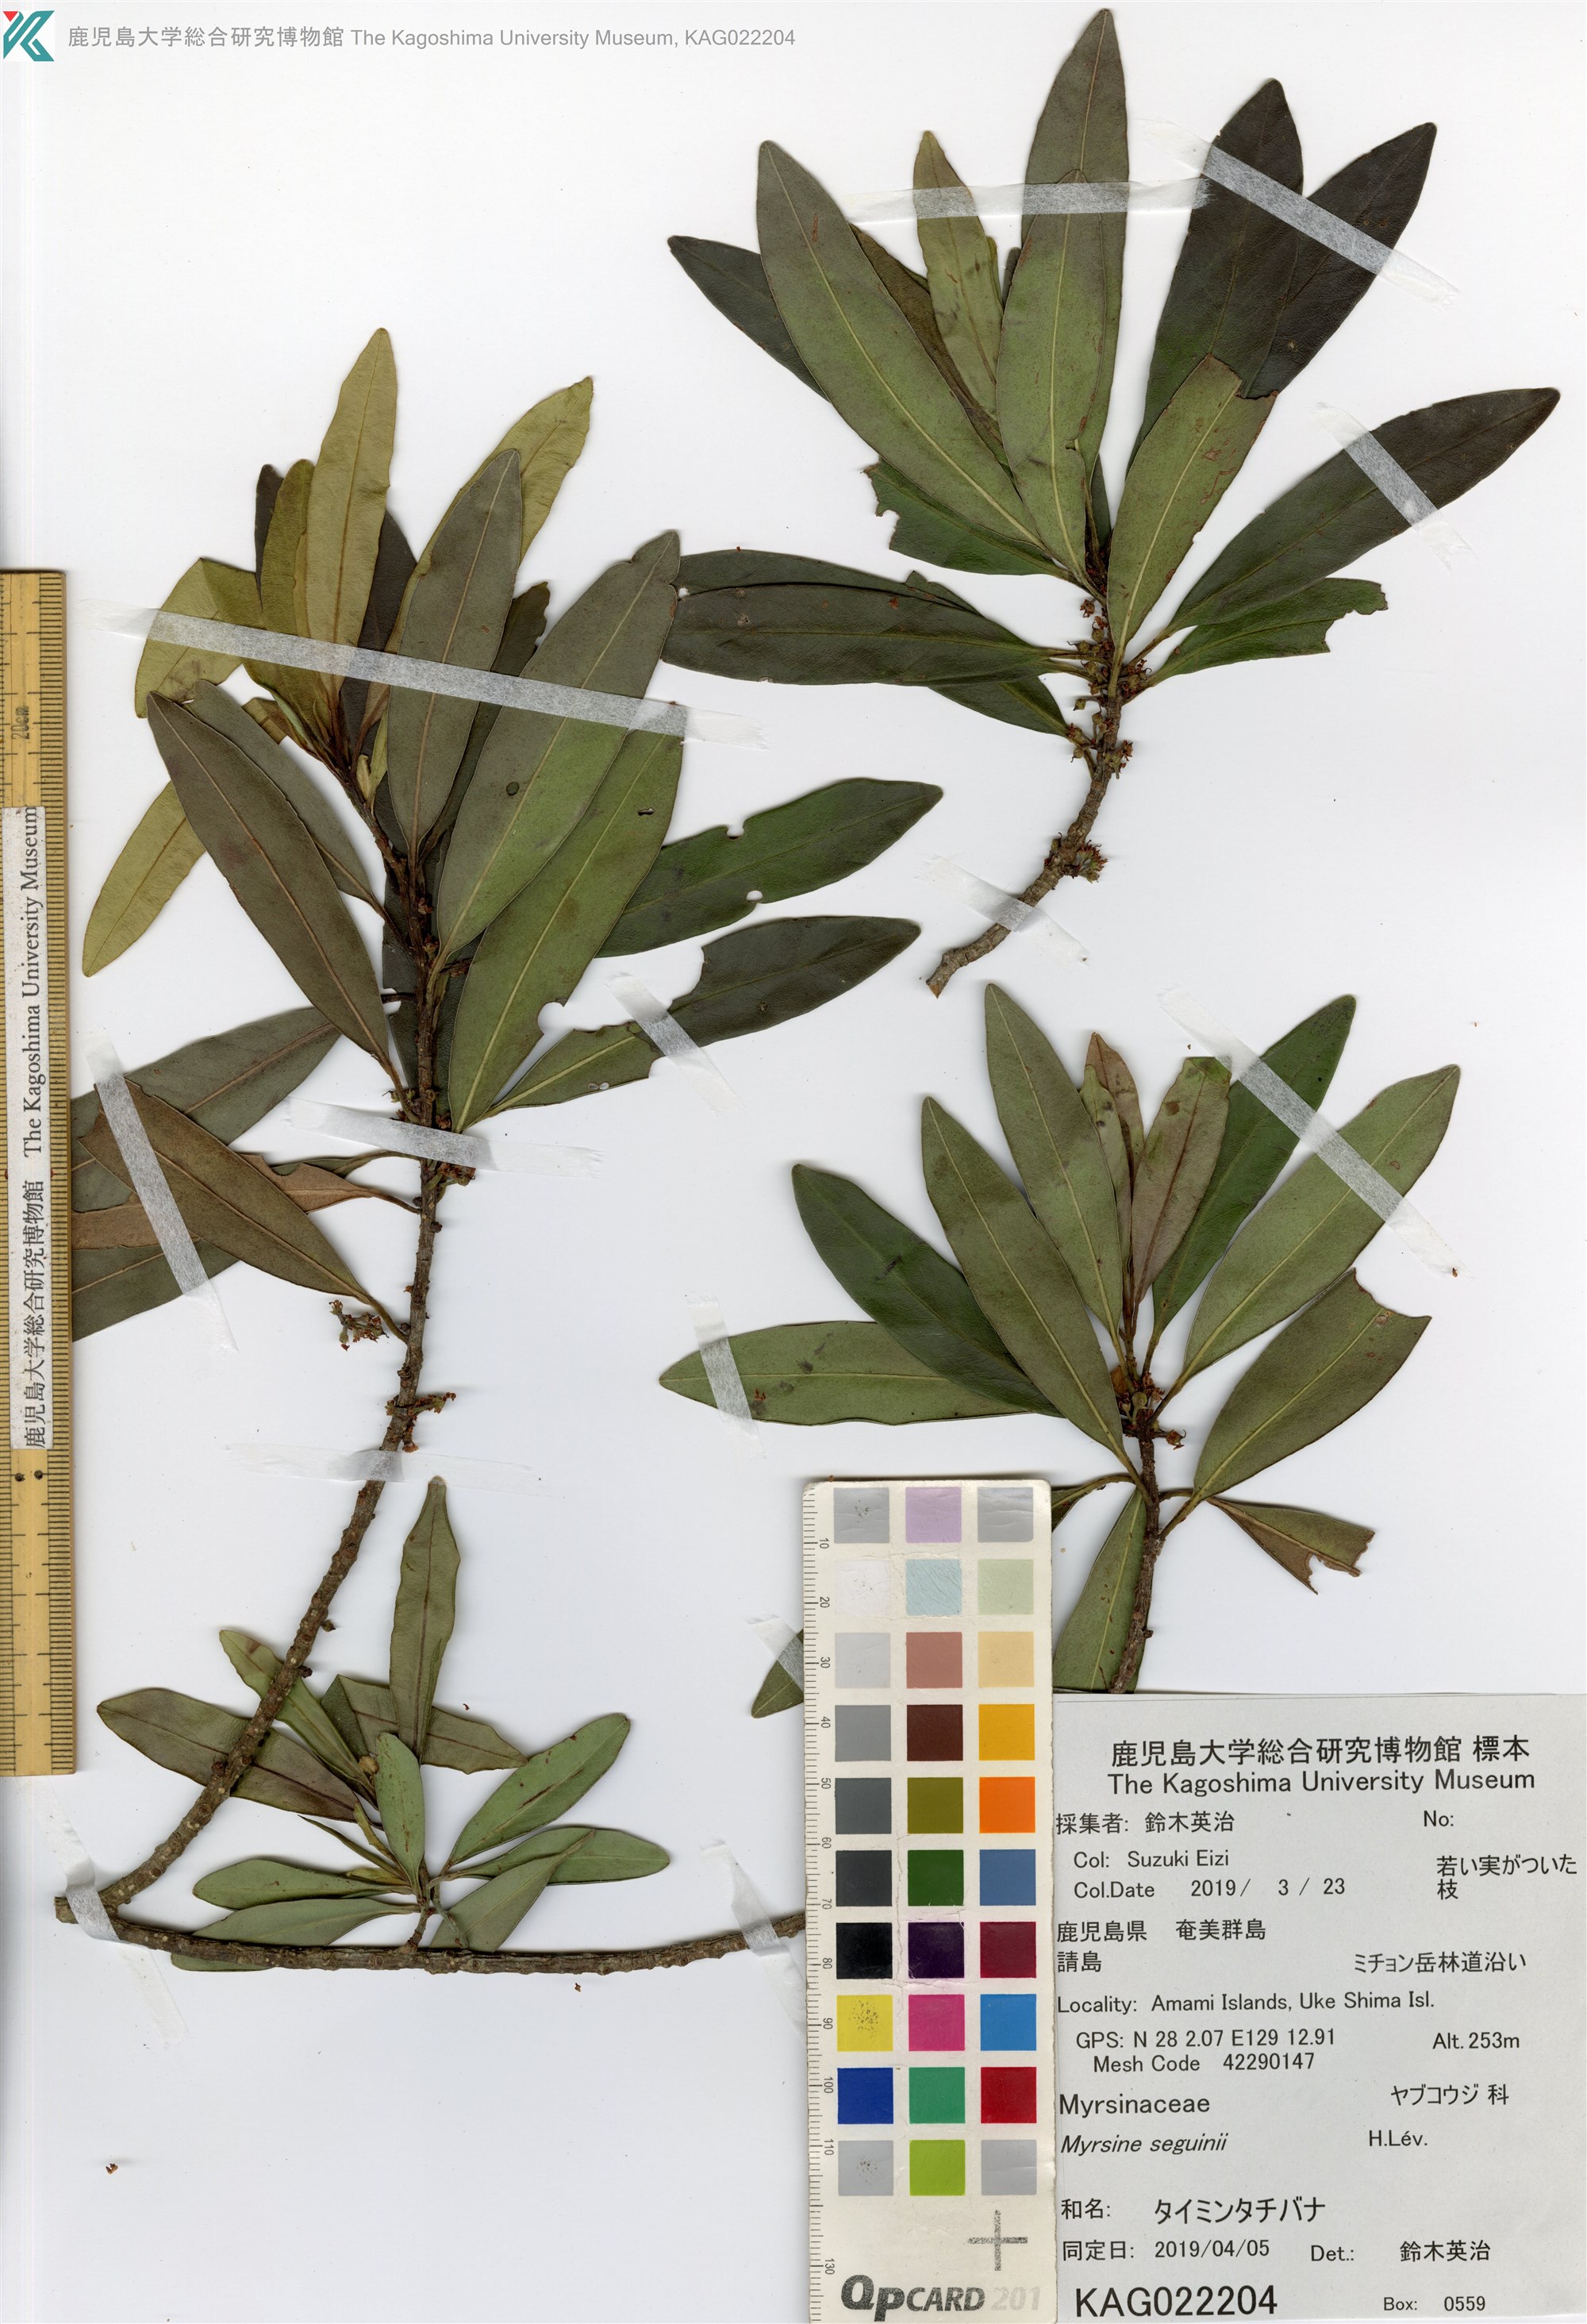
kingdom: Plantae
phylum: Tracheophyta
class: Magnoliopsida
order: Ericales
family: Primulaceae
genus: Myrsine
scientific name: Myrsine seguinii
